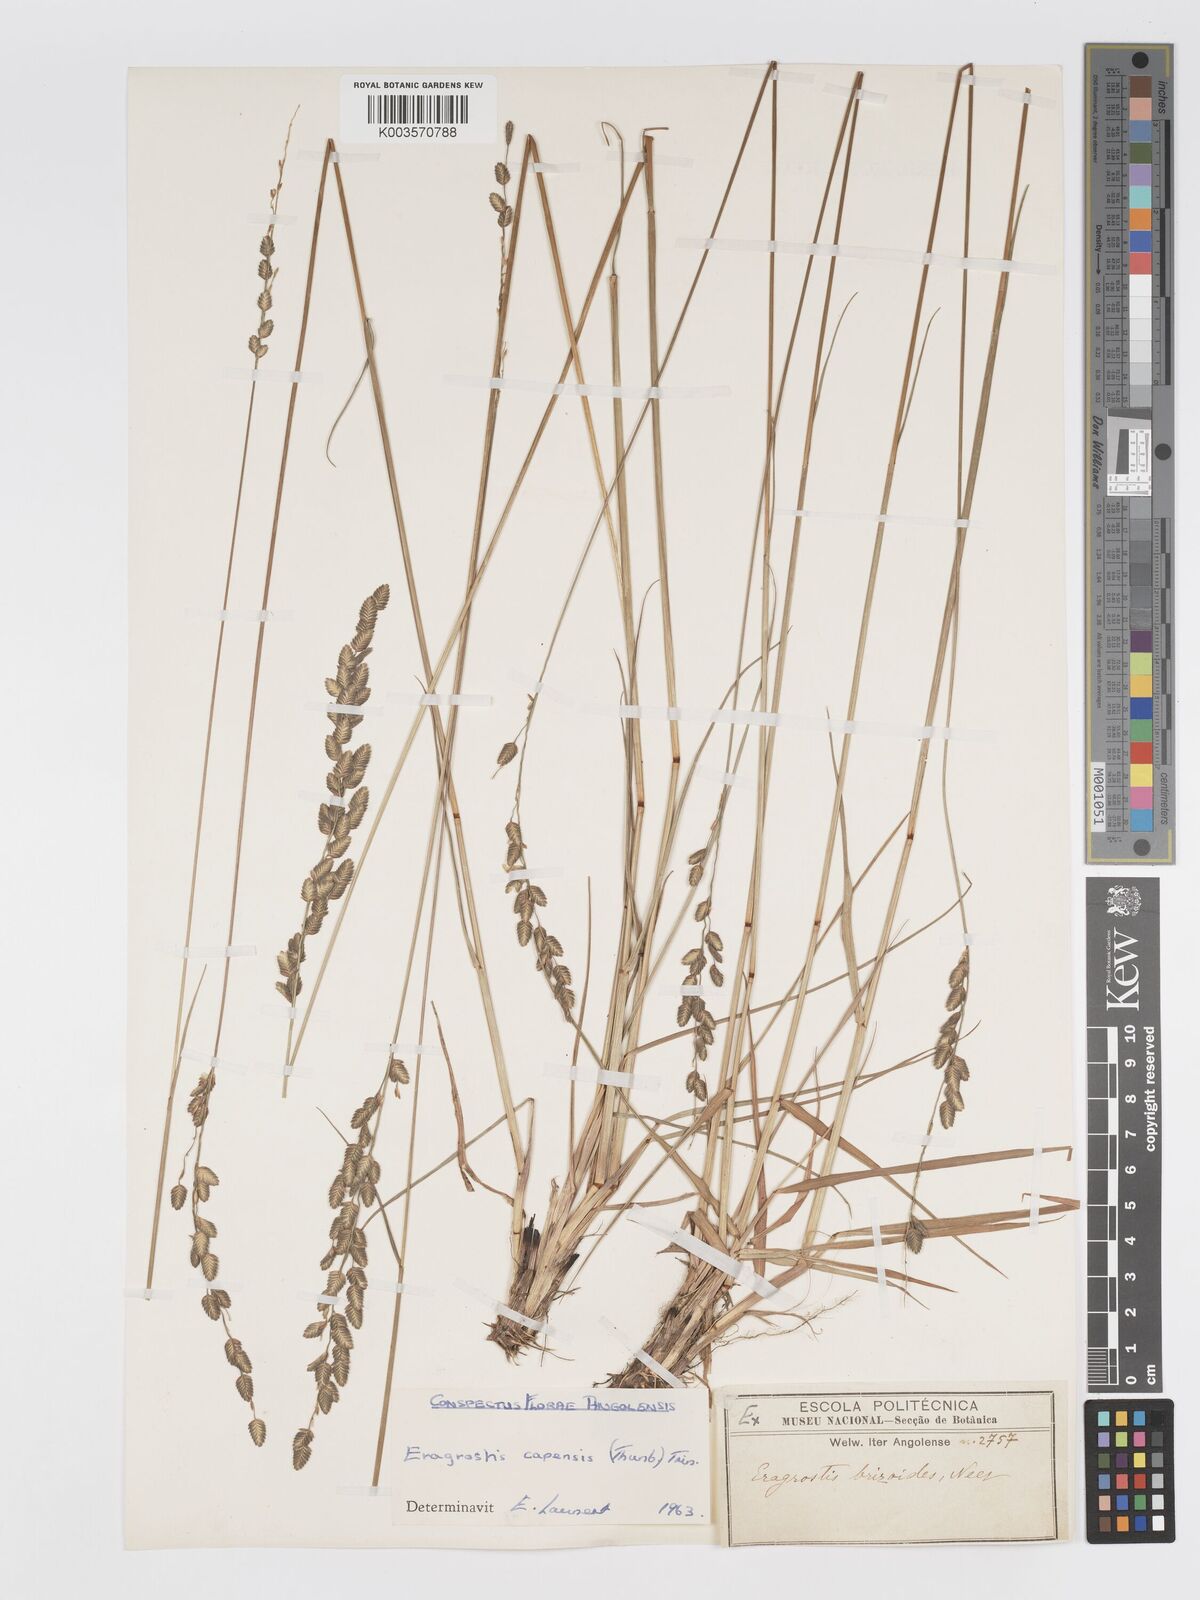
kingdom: Plantae
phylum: Tracheophyta
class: Liliopsida
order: Poales
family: Poaceae
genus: Eragrostis
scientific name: Eragrostis capensis
